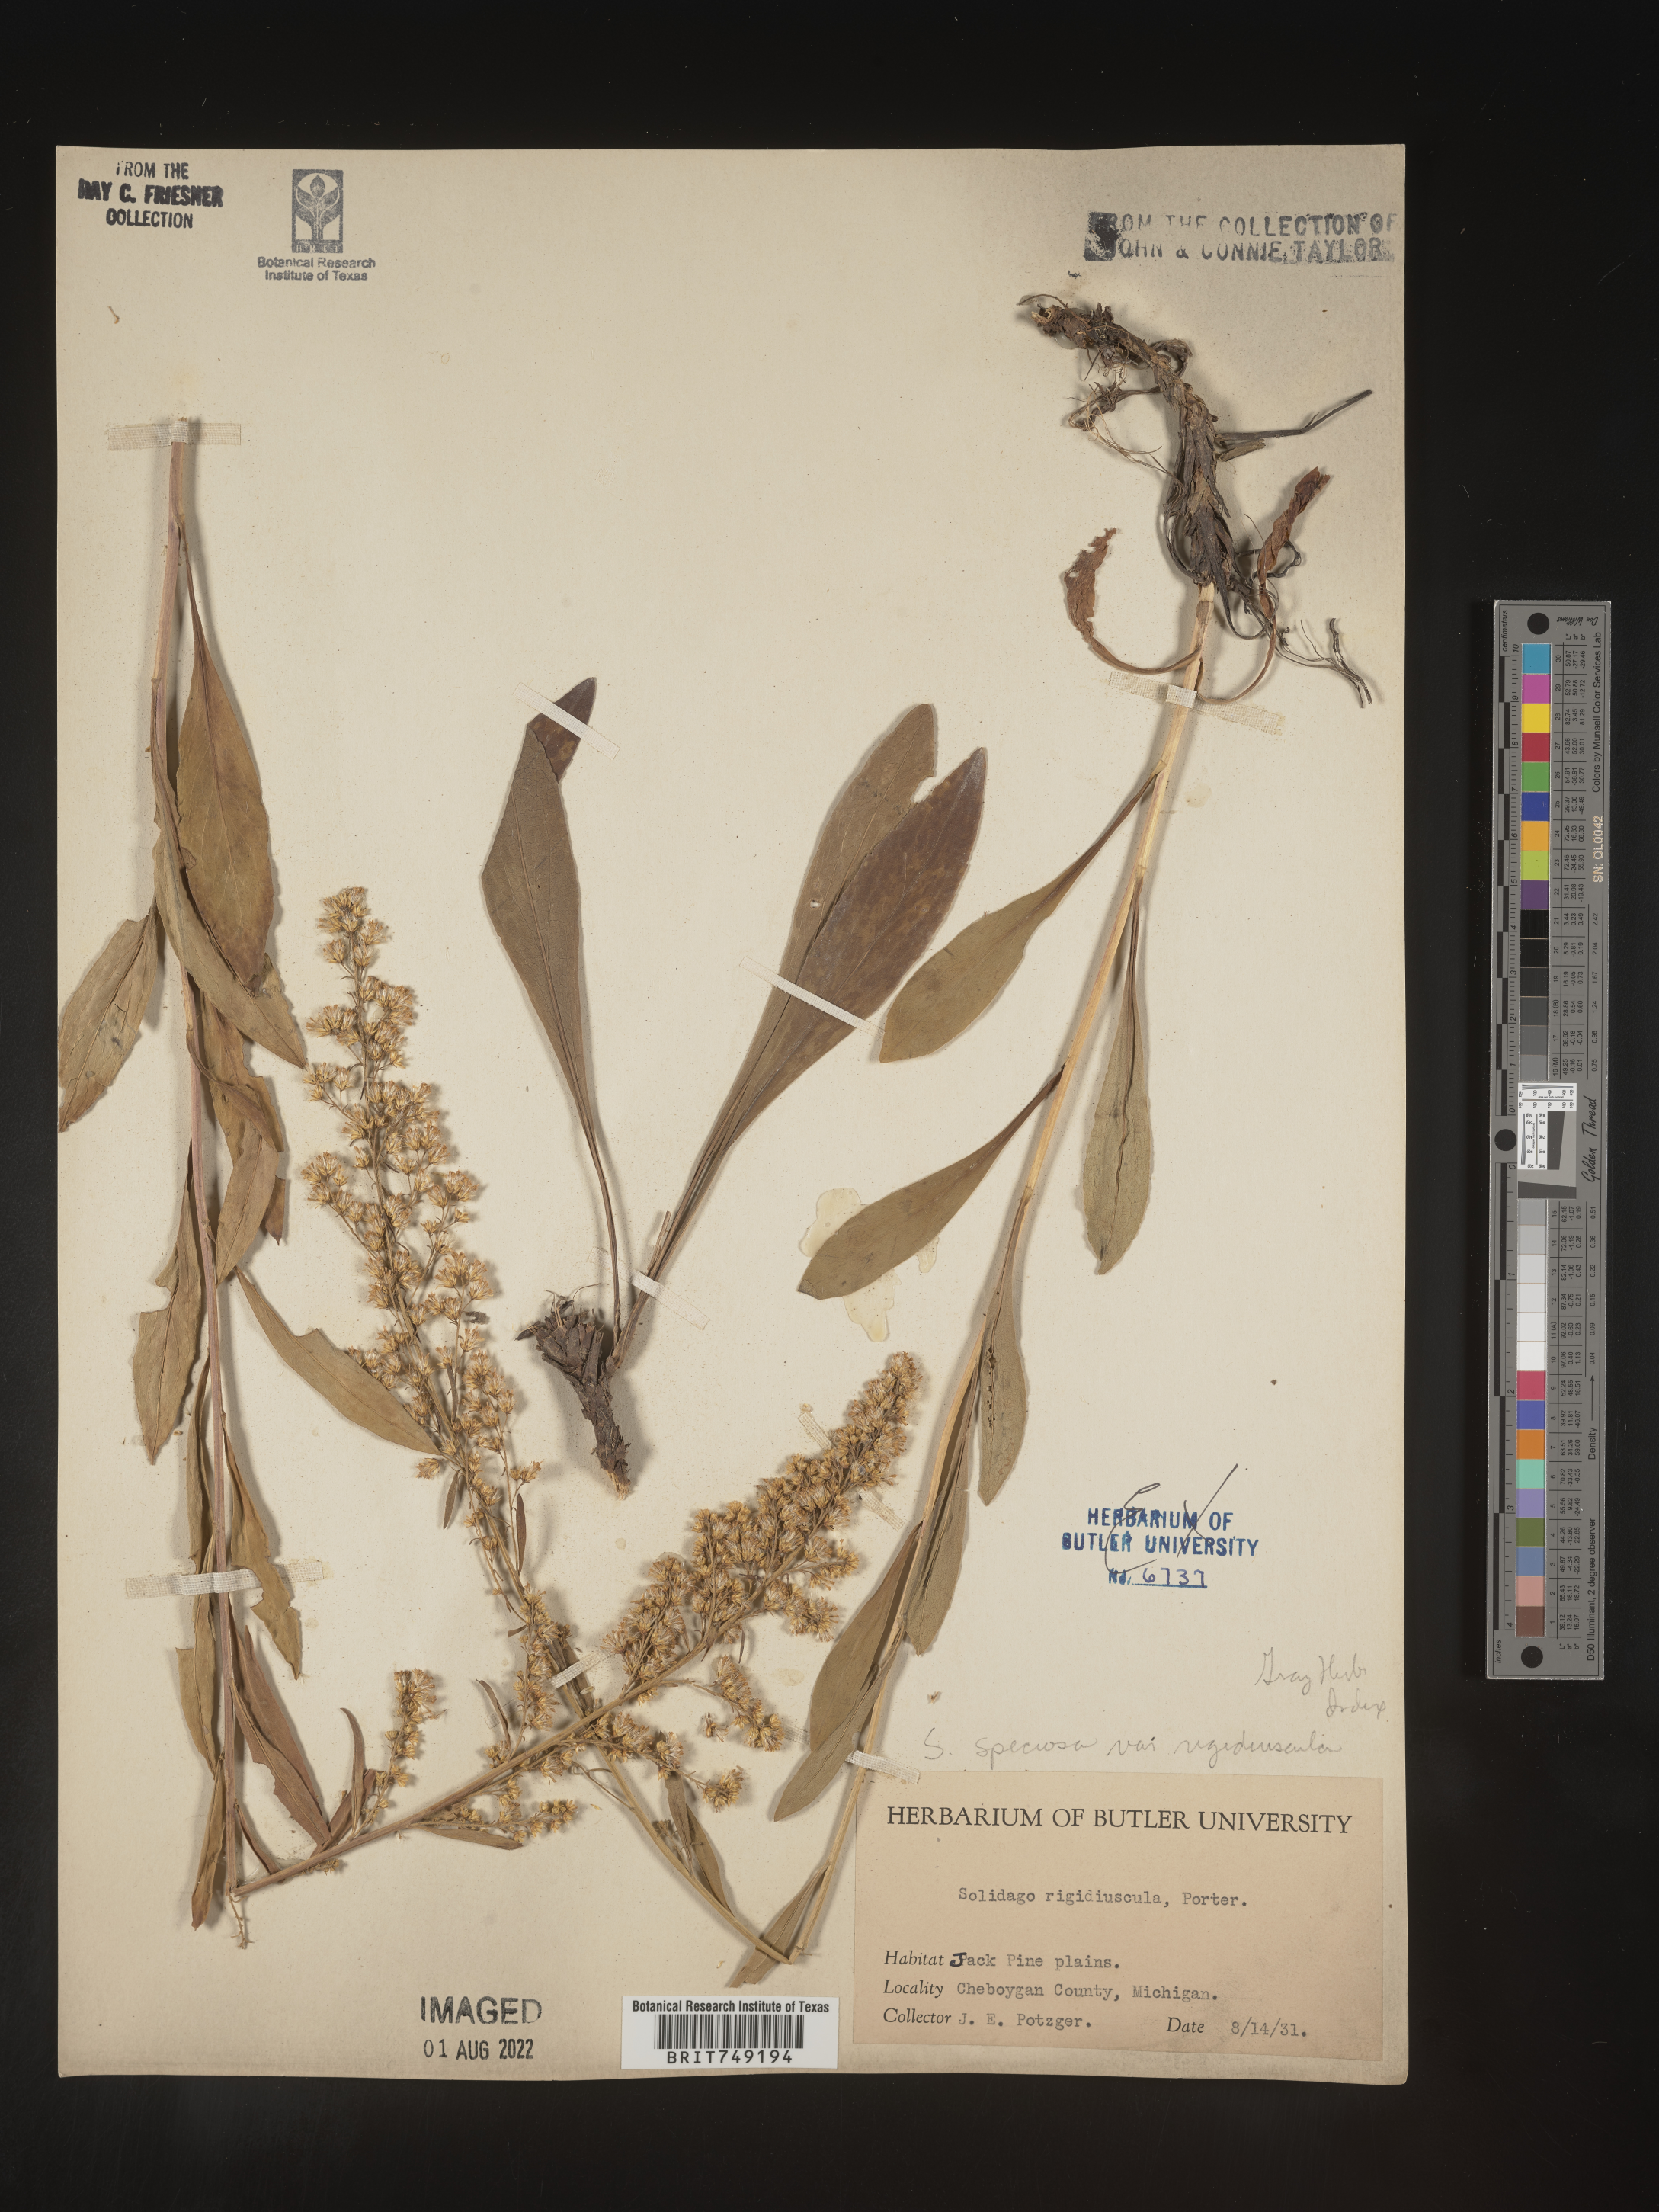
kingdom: Plantae
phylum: Tracheophyta
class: Magnoliopsida
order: Asterales
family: Asteraceae
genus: Solidago
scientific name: Solidago speciosa
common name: Showy goldenrod
